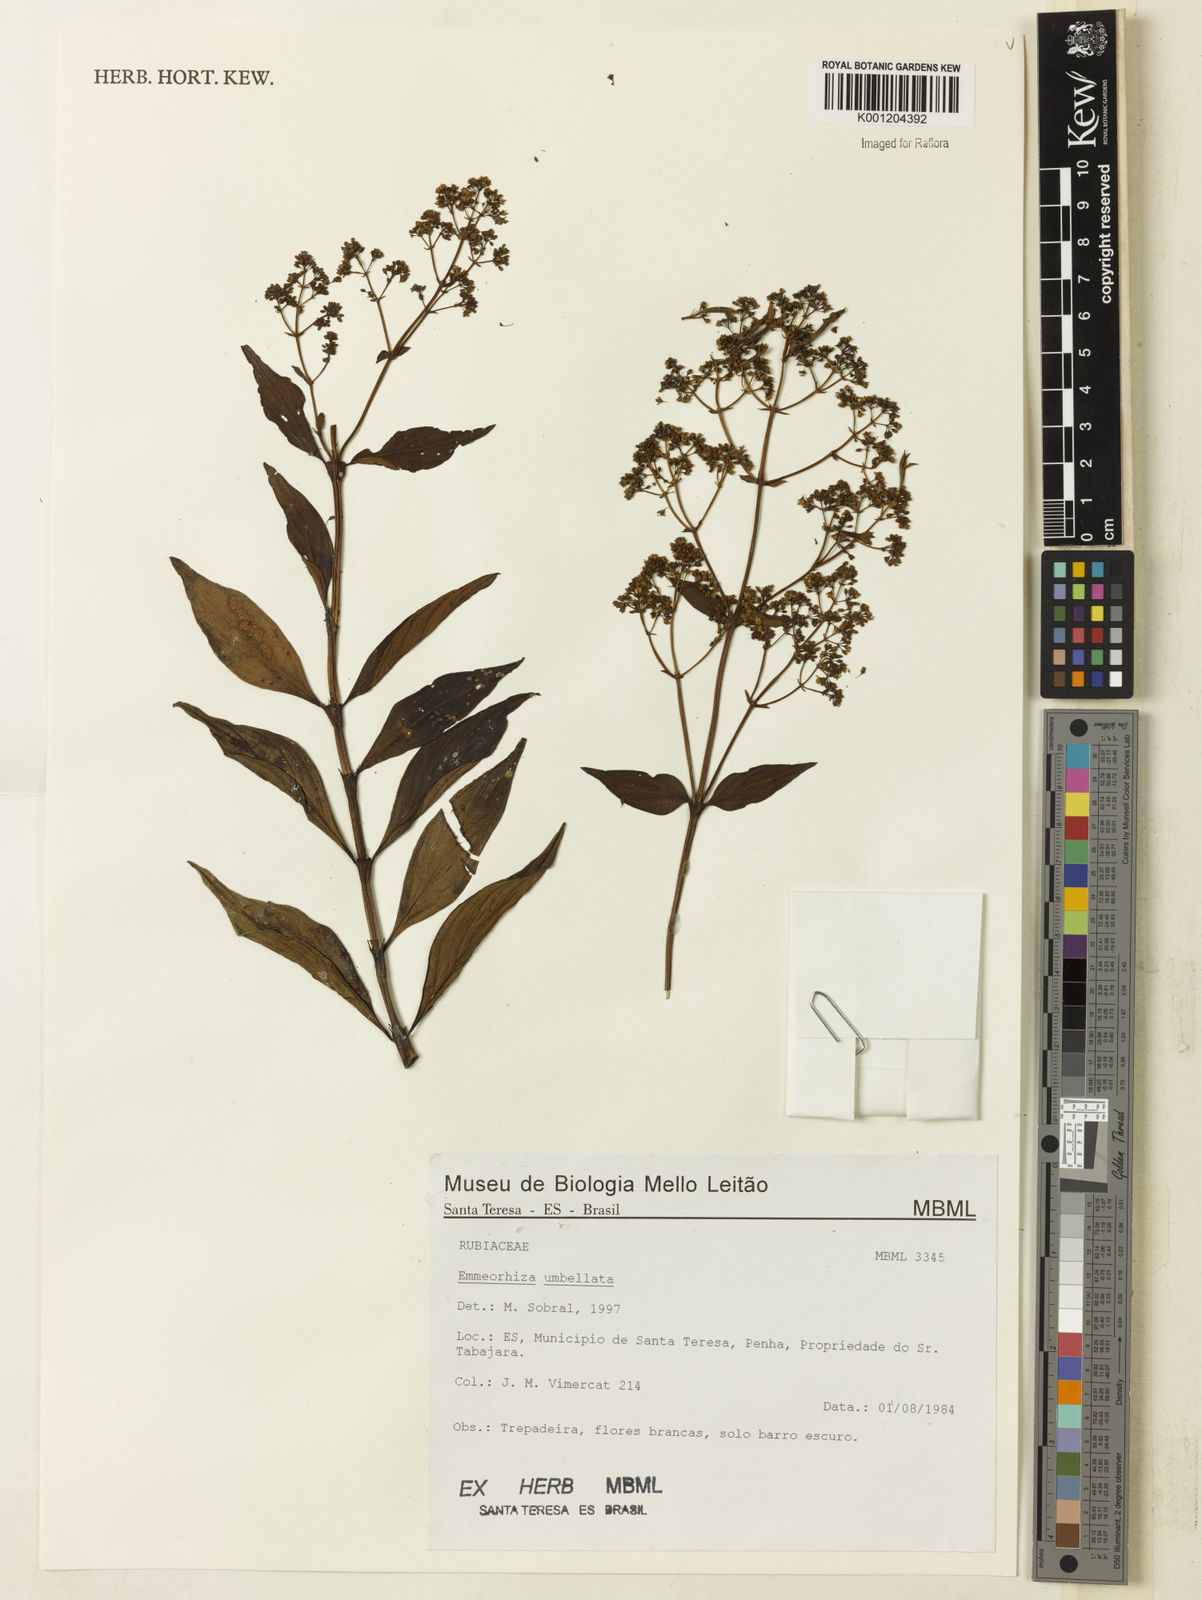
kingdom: Plantae
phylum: Tracheophyta
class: Magnoliopsida
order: Gentianales
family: Rubiaceae
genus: Emmeorhiza
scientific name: Emmeorhiza umbellata
